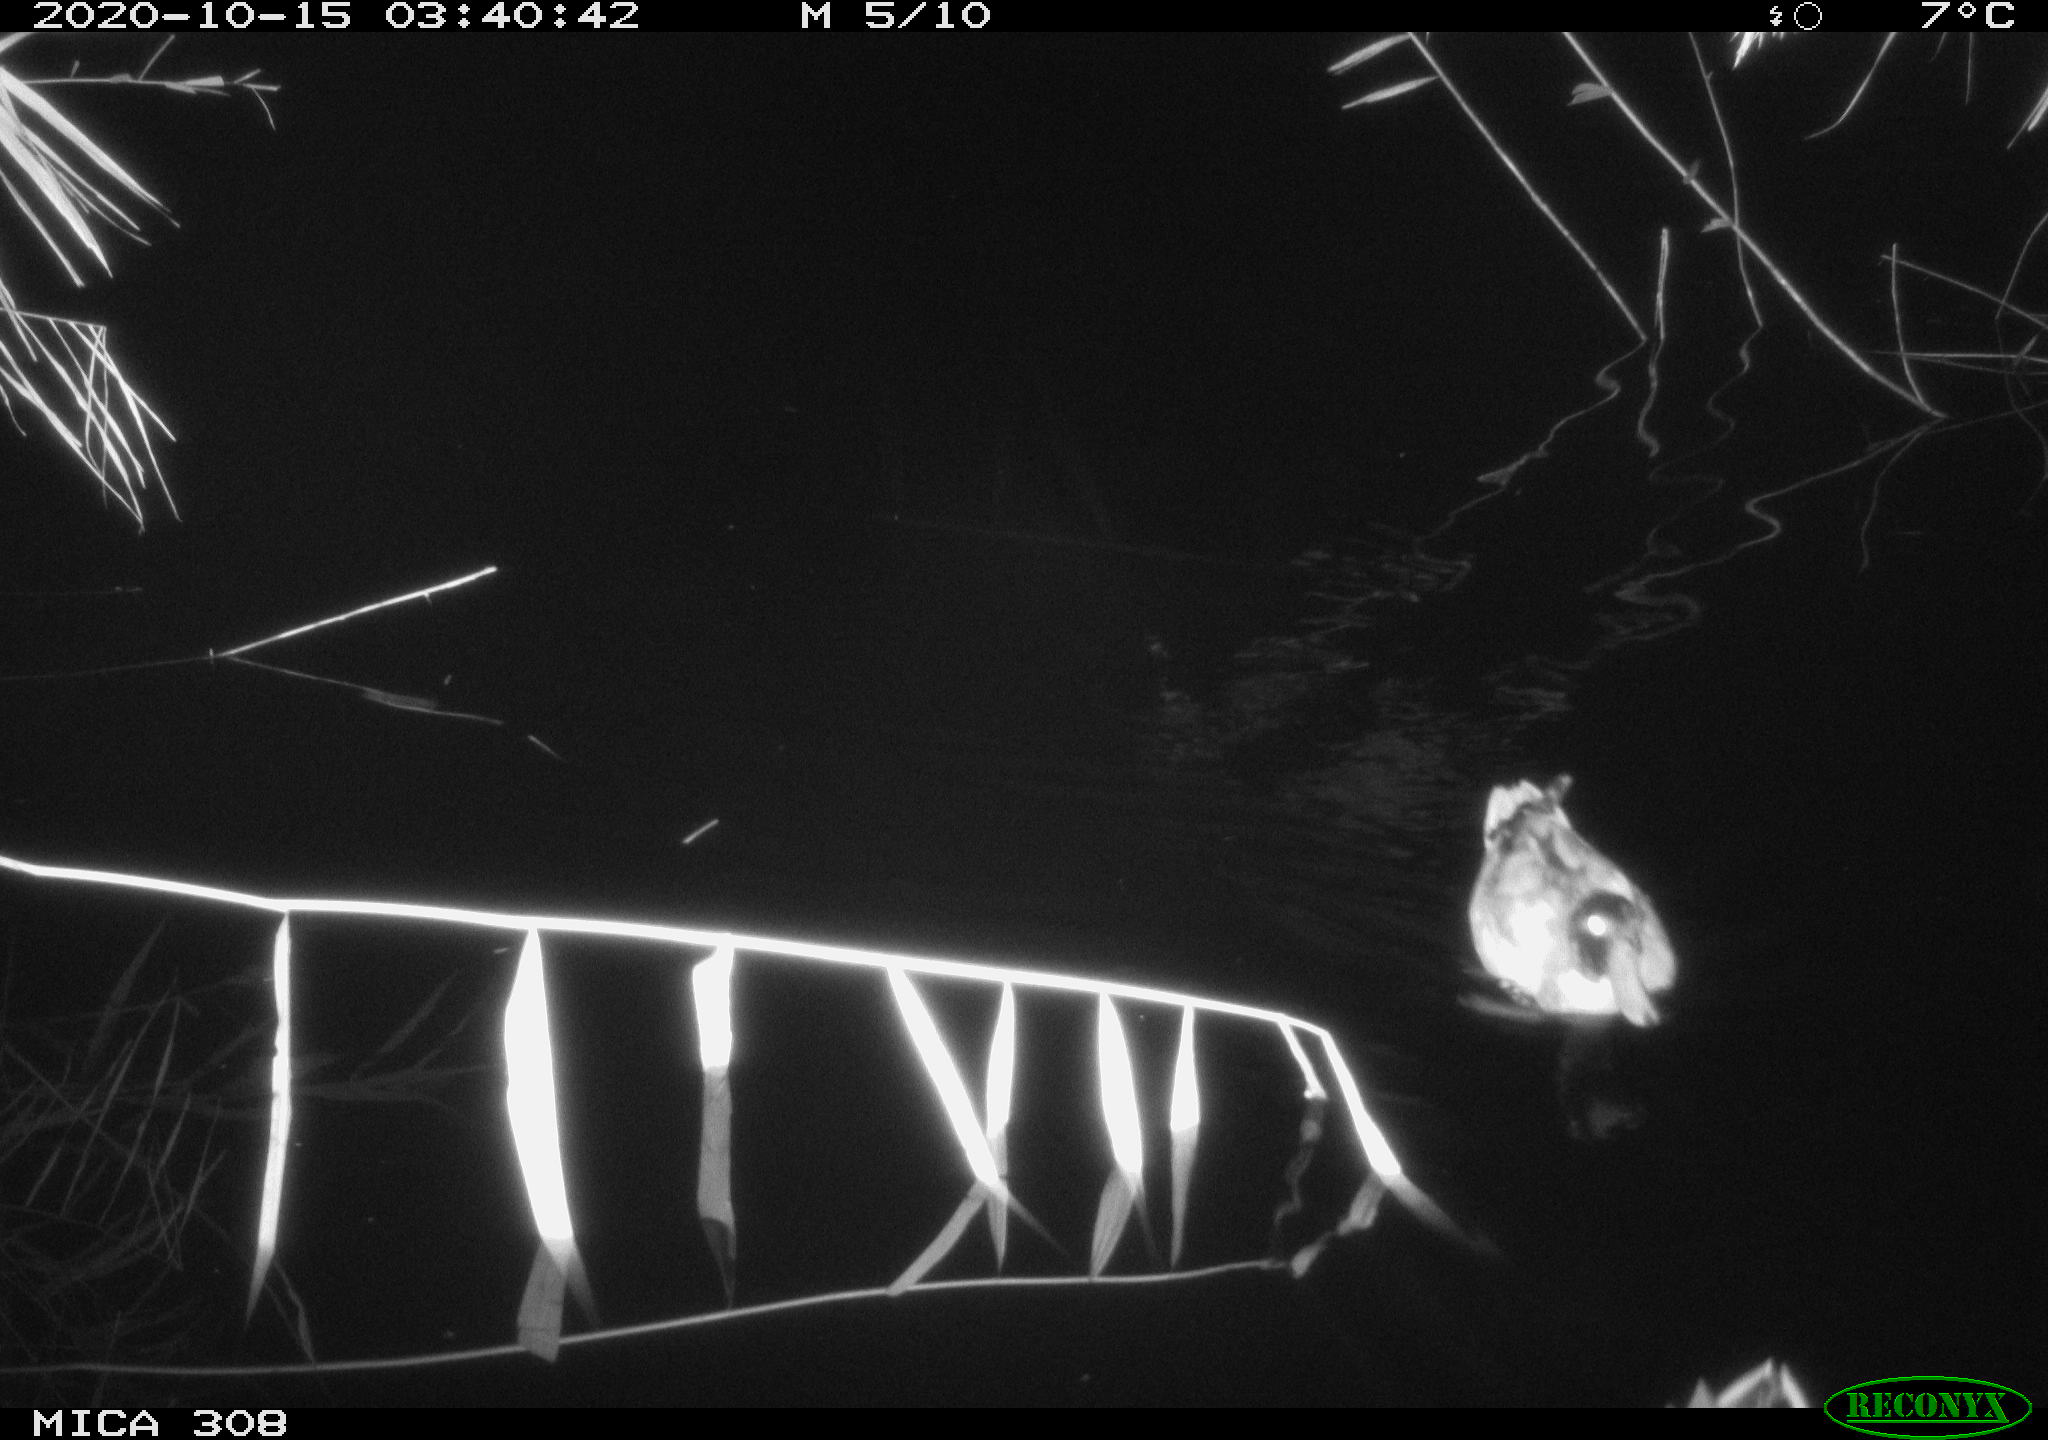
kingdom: Animalia
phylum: Chordata
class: Aves
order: Anseriformes
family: Anatidae
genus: Anas
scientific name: Anas platyrhynchos
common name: Mallard
